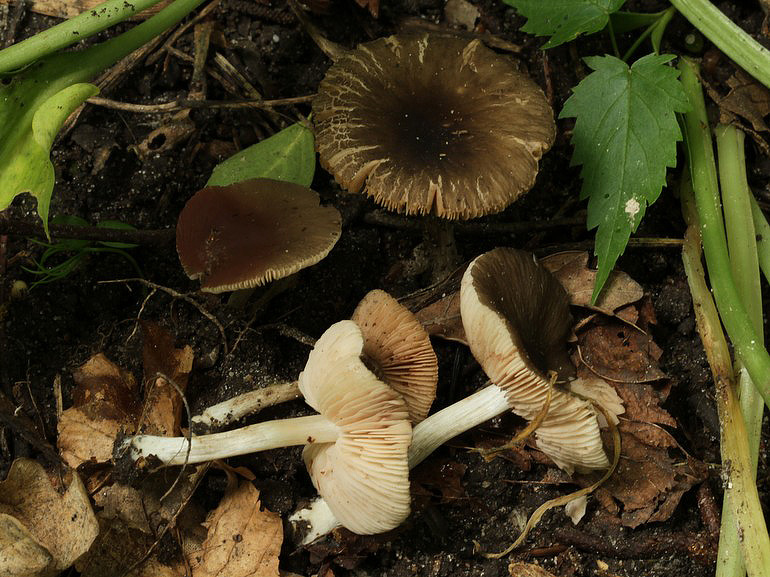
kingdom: Fungi
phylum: Basidiomycota
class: Agaricomycetes
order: Agaricales
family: Pluteaceae
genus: Pluteus
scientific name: Pluteus
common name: pudret skærmhat
